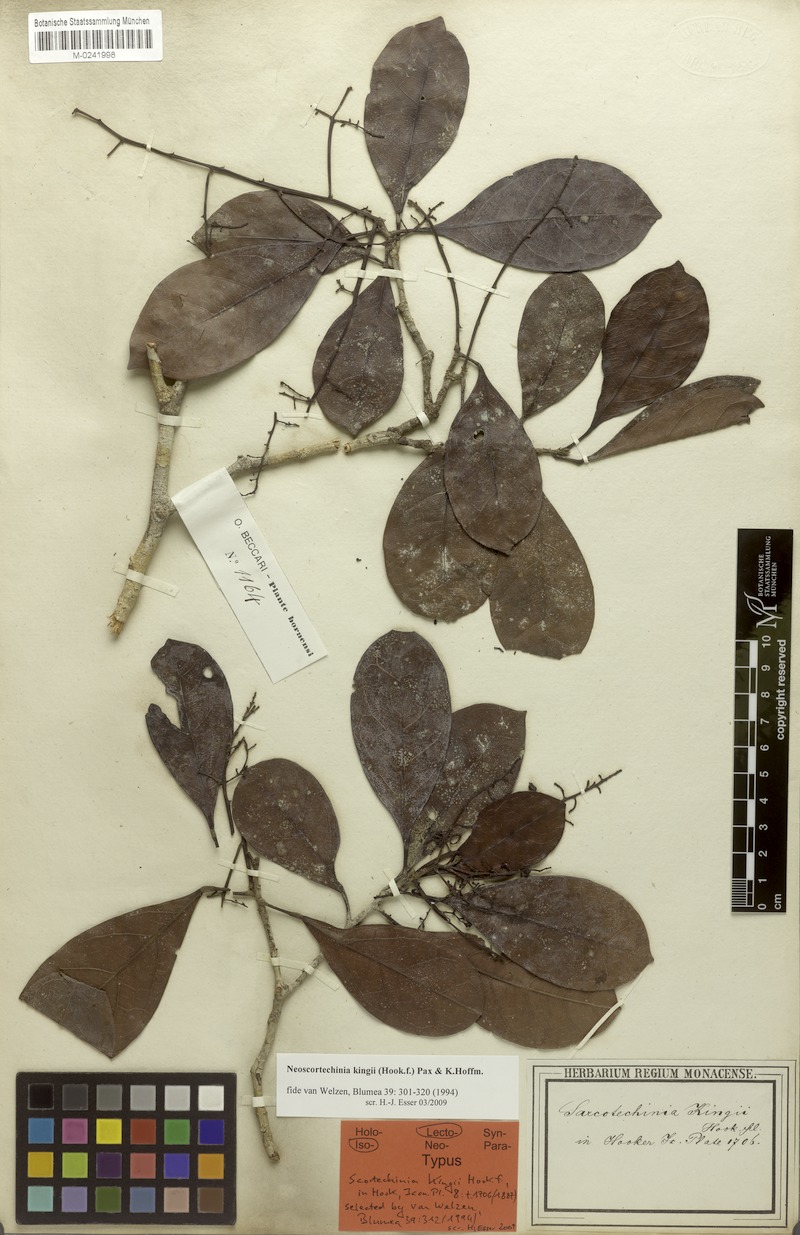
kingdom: Plantae
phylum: Tracheophyta
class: Magnoliopsida
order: Malpighiales
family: Euphorbiaceae
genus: Neoscortechinia
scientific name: Neoscortechinia kingii
